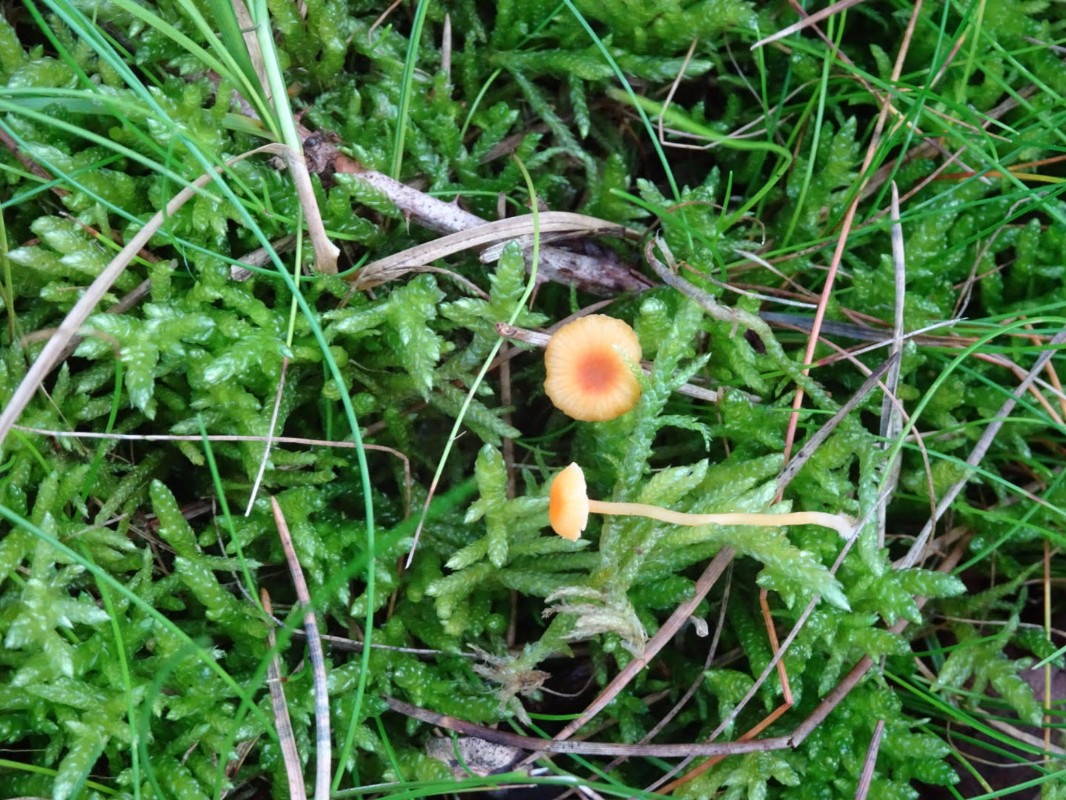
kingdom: Fungi
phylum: Basidiomycota
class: Agaricomycetes
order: Hymenochaetales
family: Rickenellaceae
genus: Rickenella
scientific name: Rickenella fibula
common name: orange mosnavlehat
